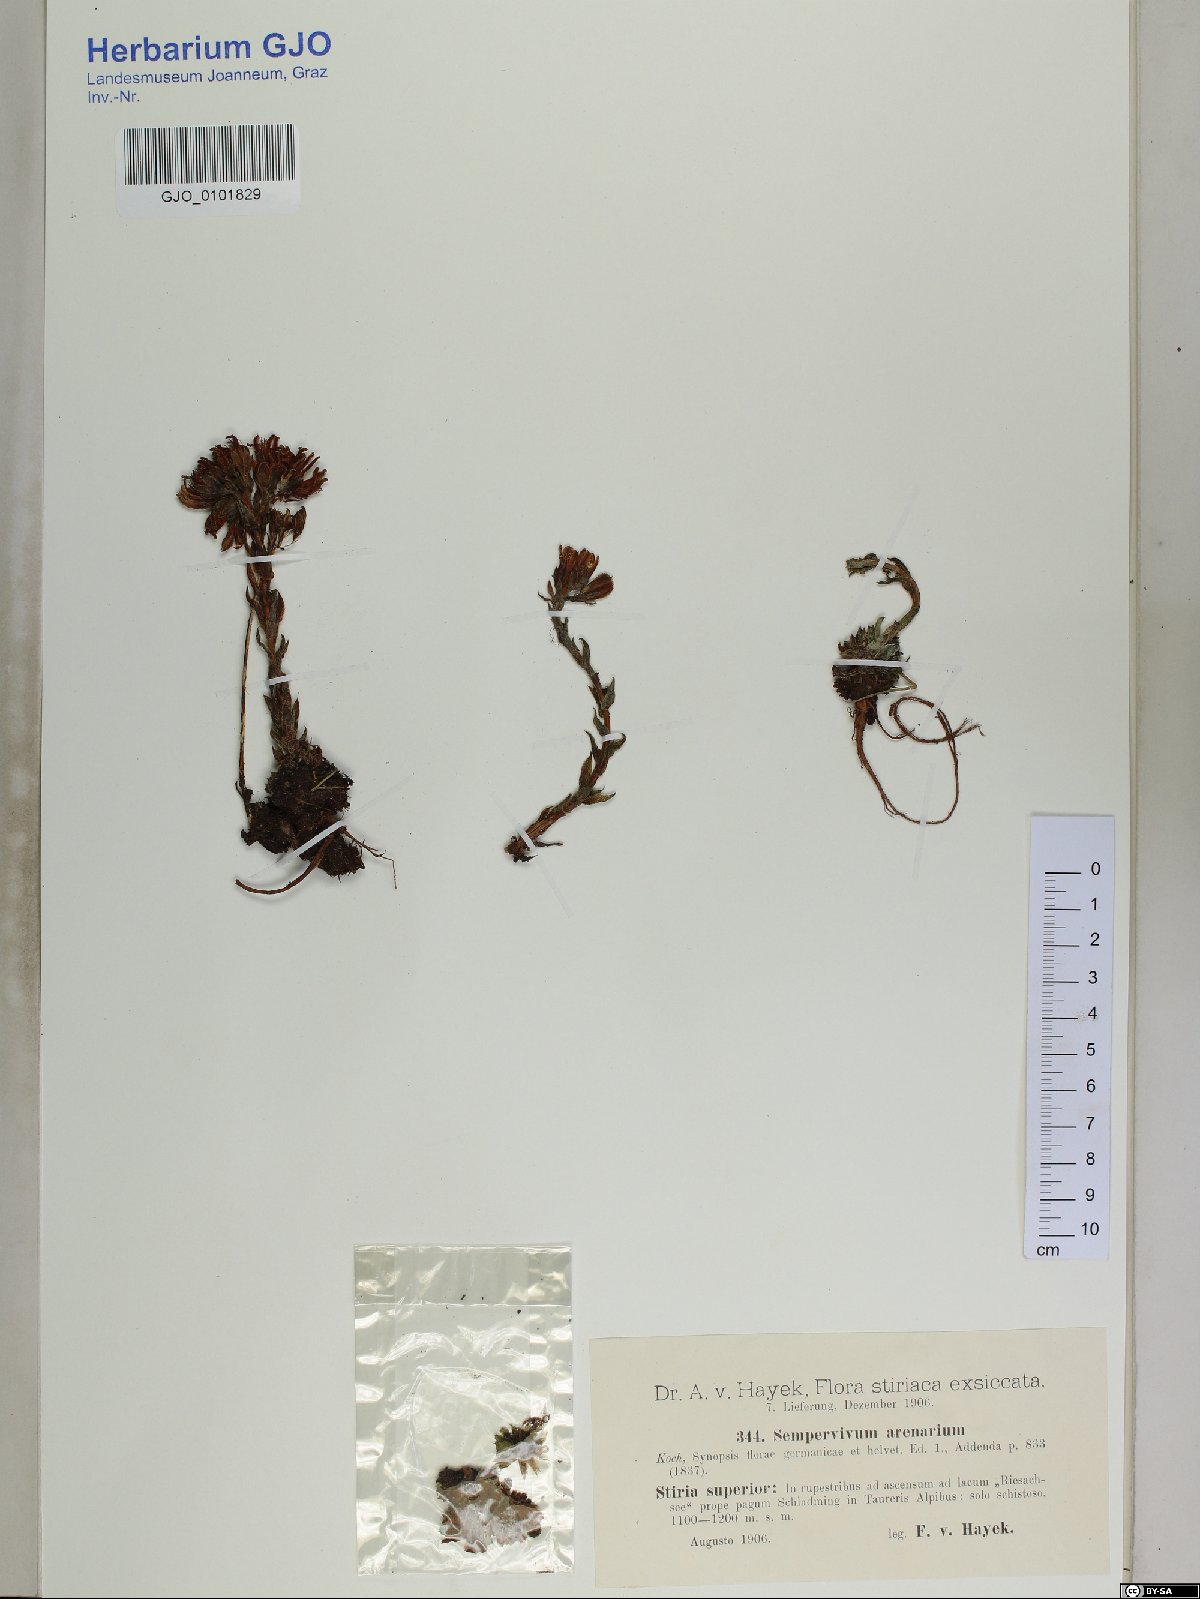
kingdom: Plantae
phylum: Tracheophyta
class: Magnoliopsida
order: Saxifragales
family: Crassulaceae
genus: Sempervivum
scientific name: Sempervivum globiferum
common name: Rolling hen-and-chicks
